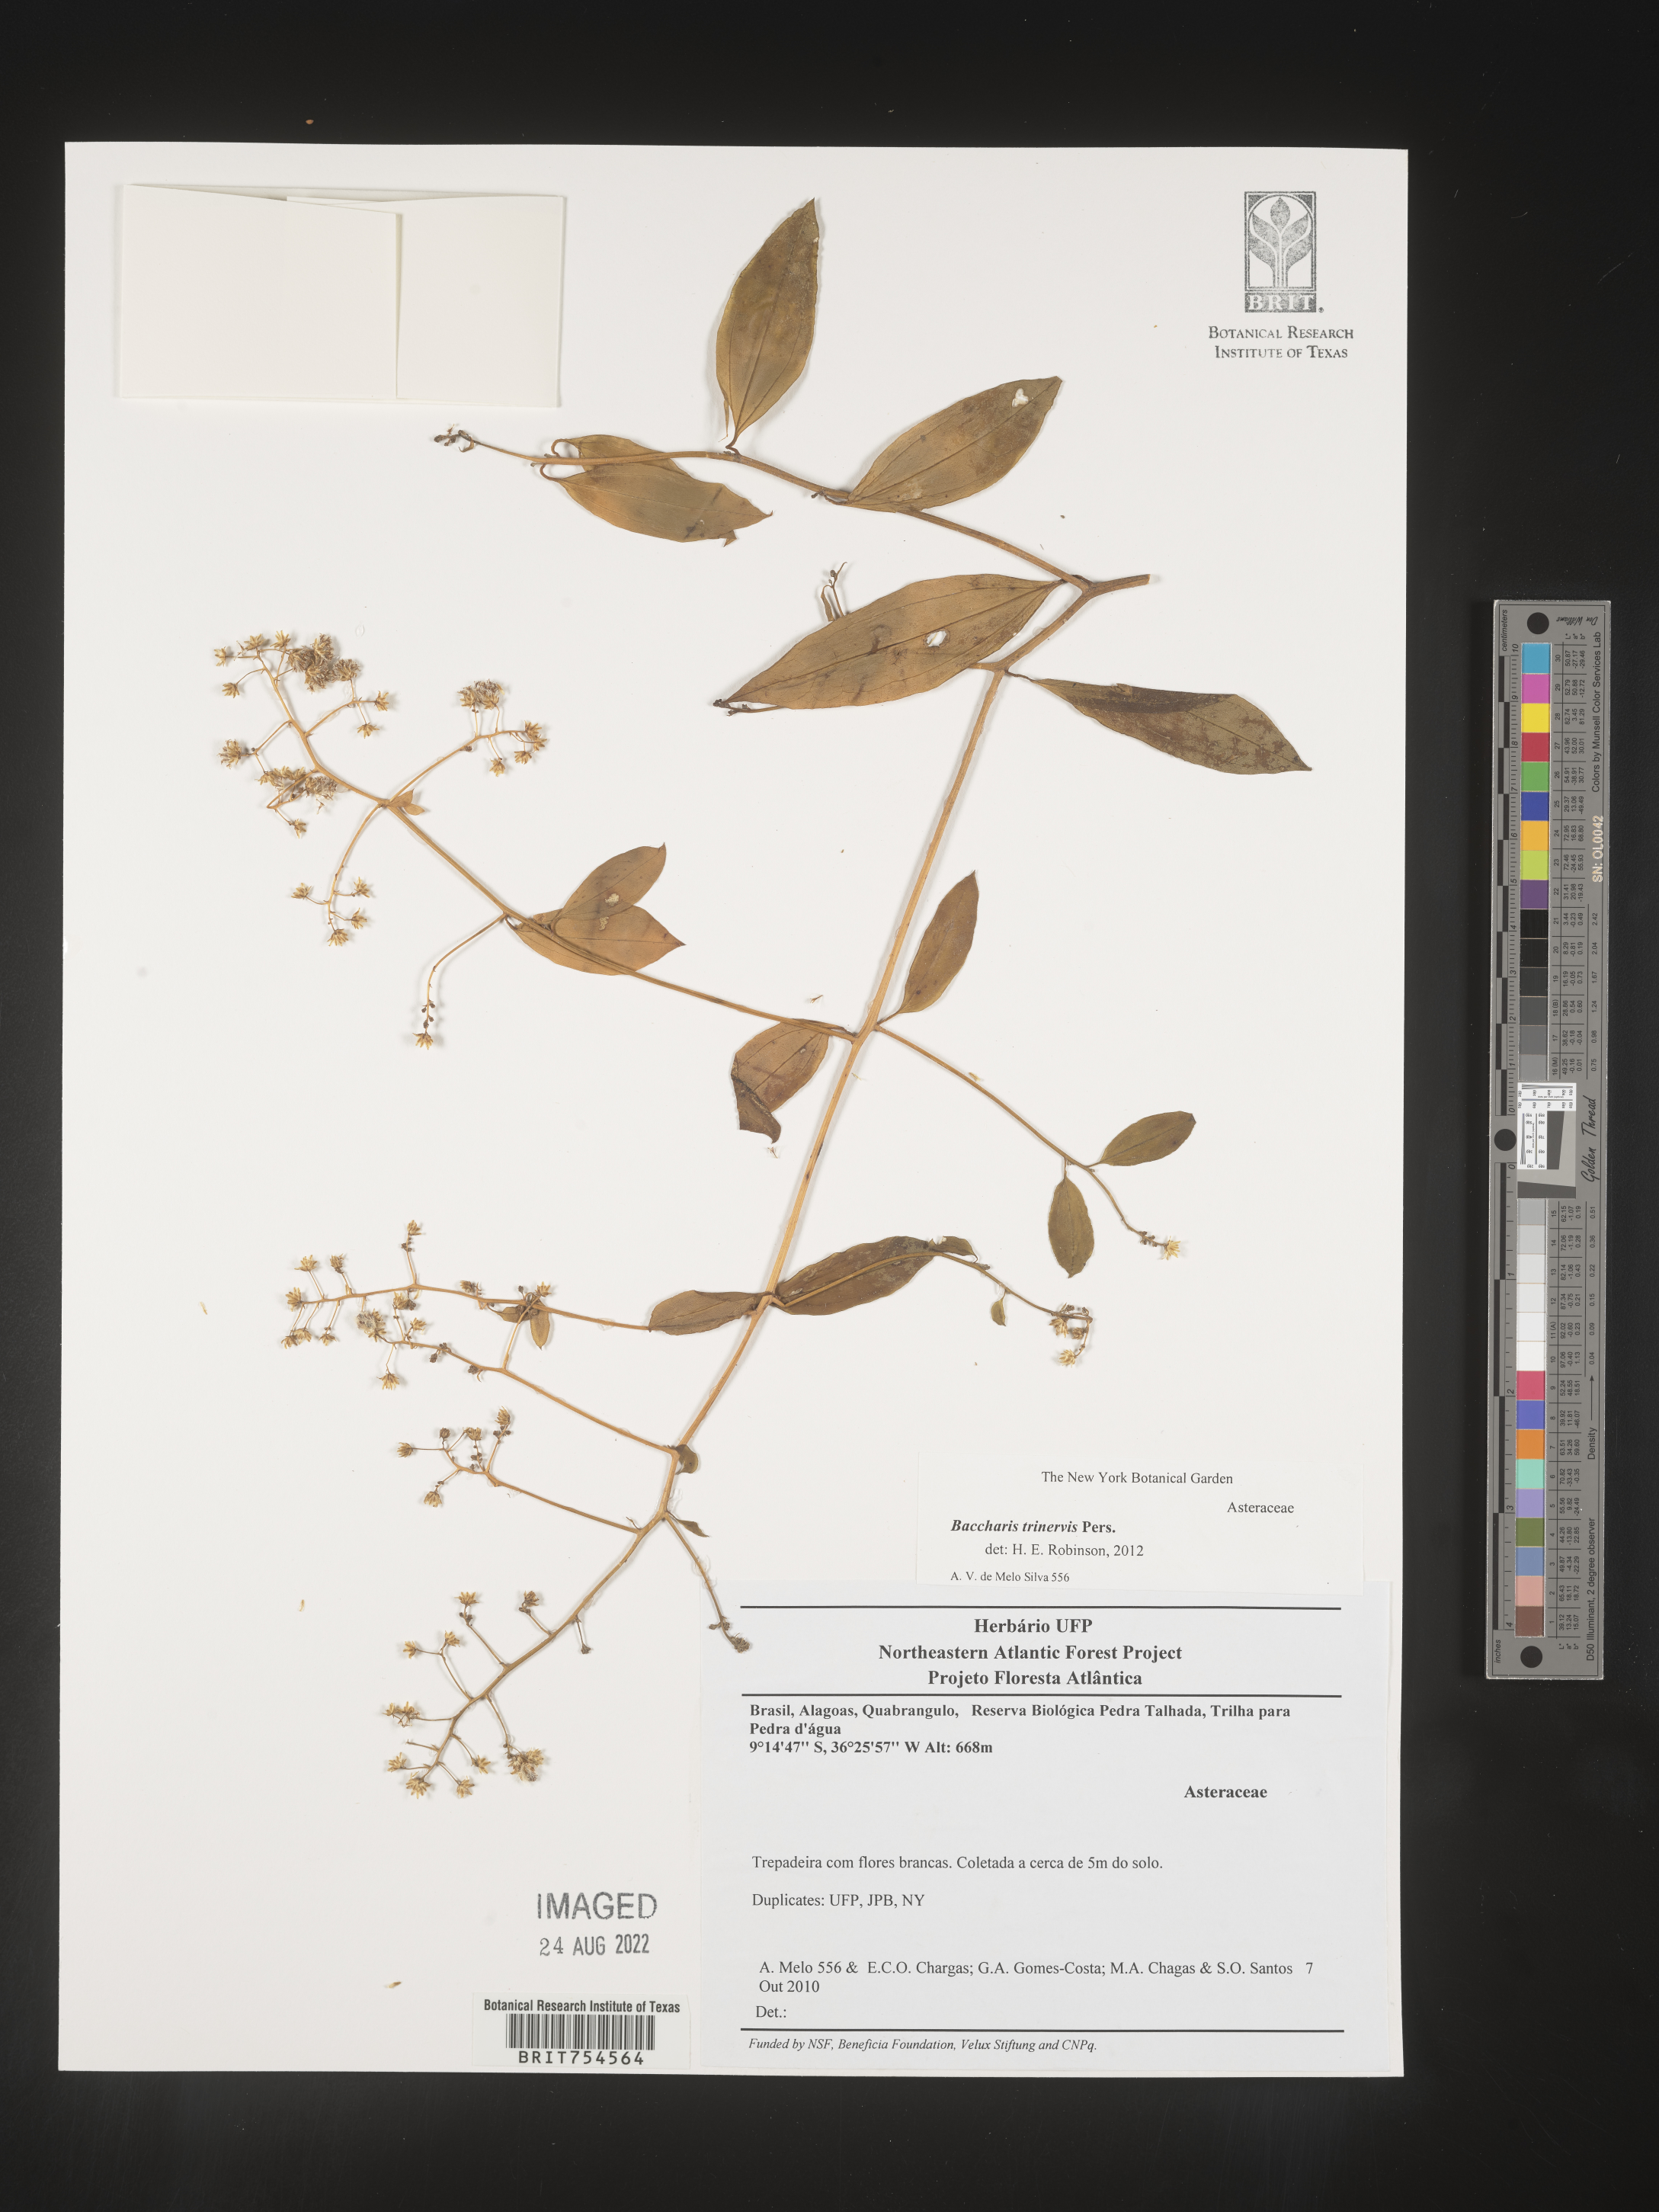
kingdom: Plantae
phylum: Tracheophyta
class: Magnoliopsida
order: Asterales
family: Asteraceae
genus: Baccharis
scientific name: Baccharis
